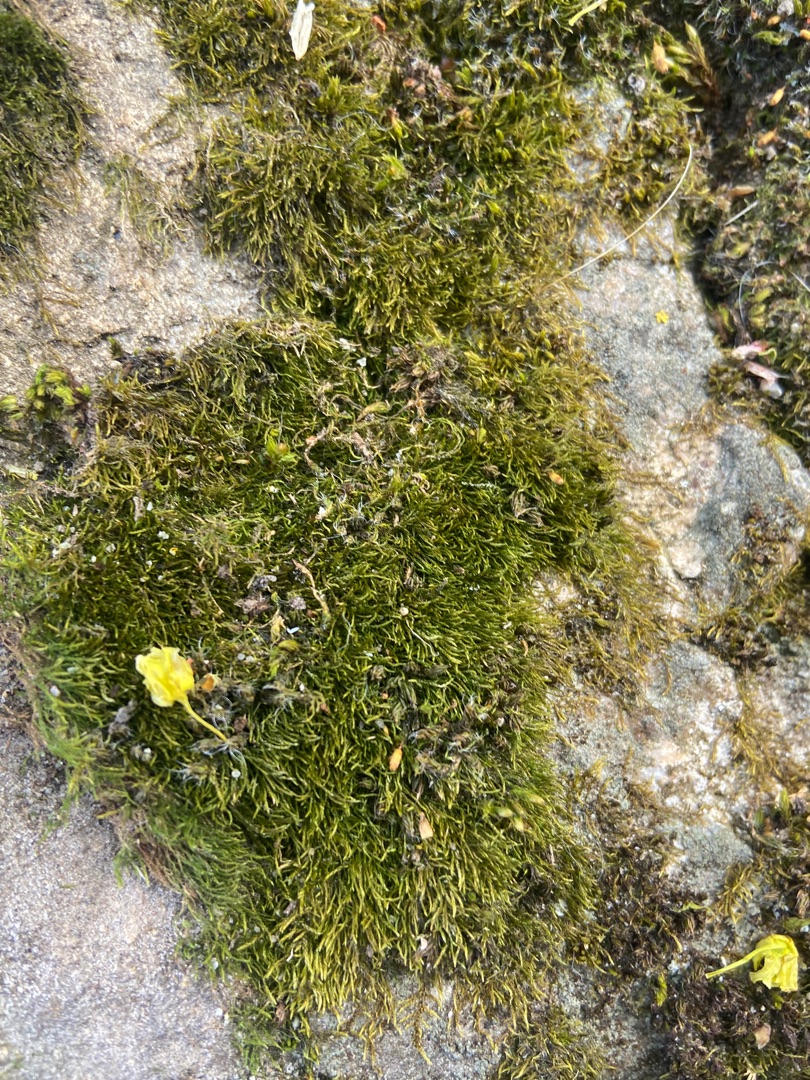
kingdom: Plantae
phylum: Bryophyta
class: Bryopsida
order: Hypnales
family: Amblystegiaceae
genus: Amblystegium
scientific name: Amblystegium serpens
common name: Almindelig krybmos
